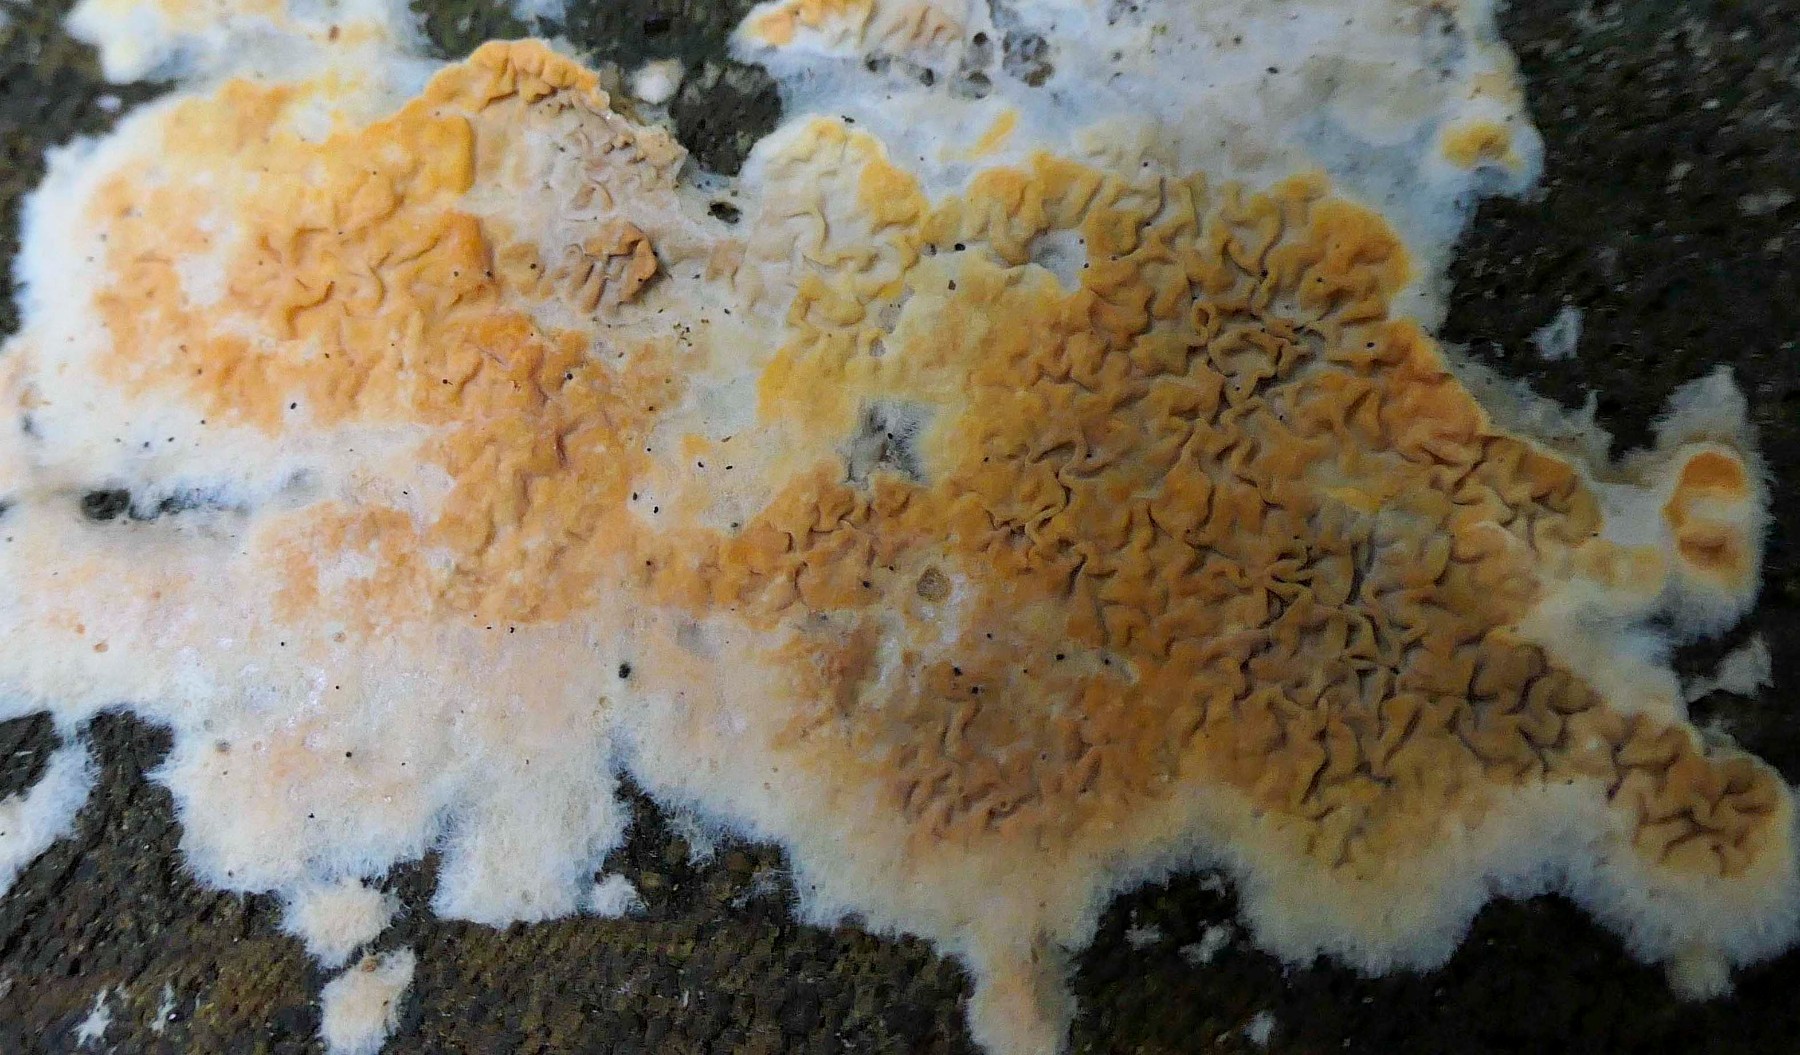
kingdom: Fungi
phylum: Basidiomycota
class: Agaricomycetes
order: Boletales
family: Hygrophoropsidaceae
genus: Leucogyrophana
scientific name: Leucogyrophana mollusca
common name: blød hussvamp
